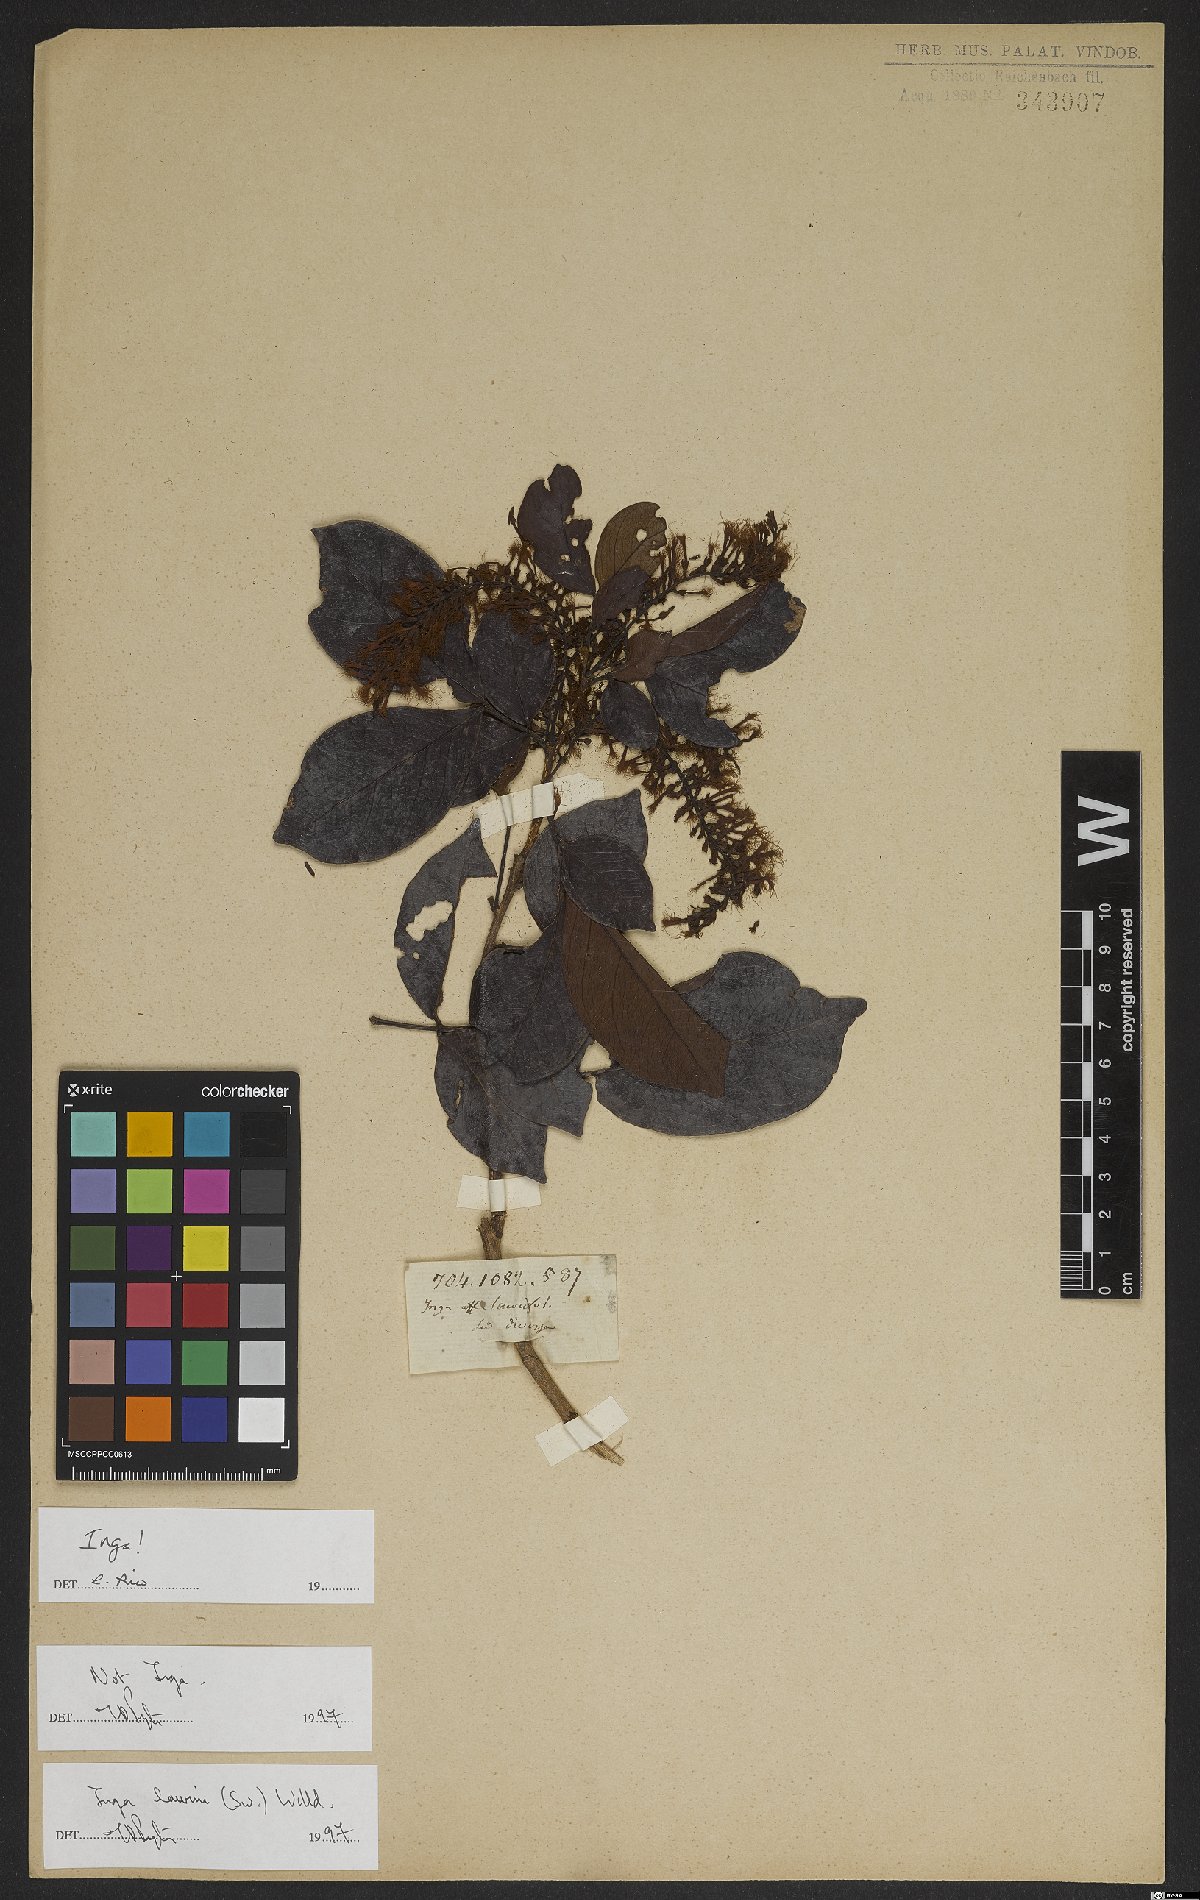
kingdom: Plantae
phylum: Tracheophyta
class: Magnoliopsida
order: Fabales
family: Fabaceae
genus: Inga
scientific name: Inga laurina
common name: Red wood
